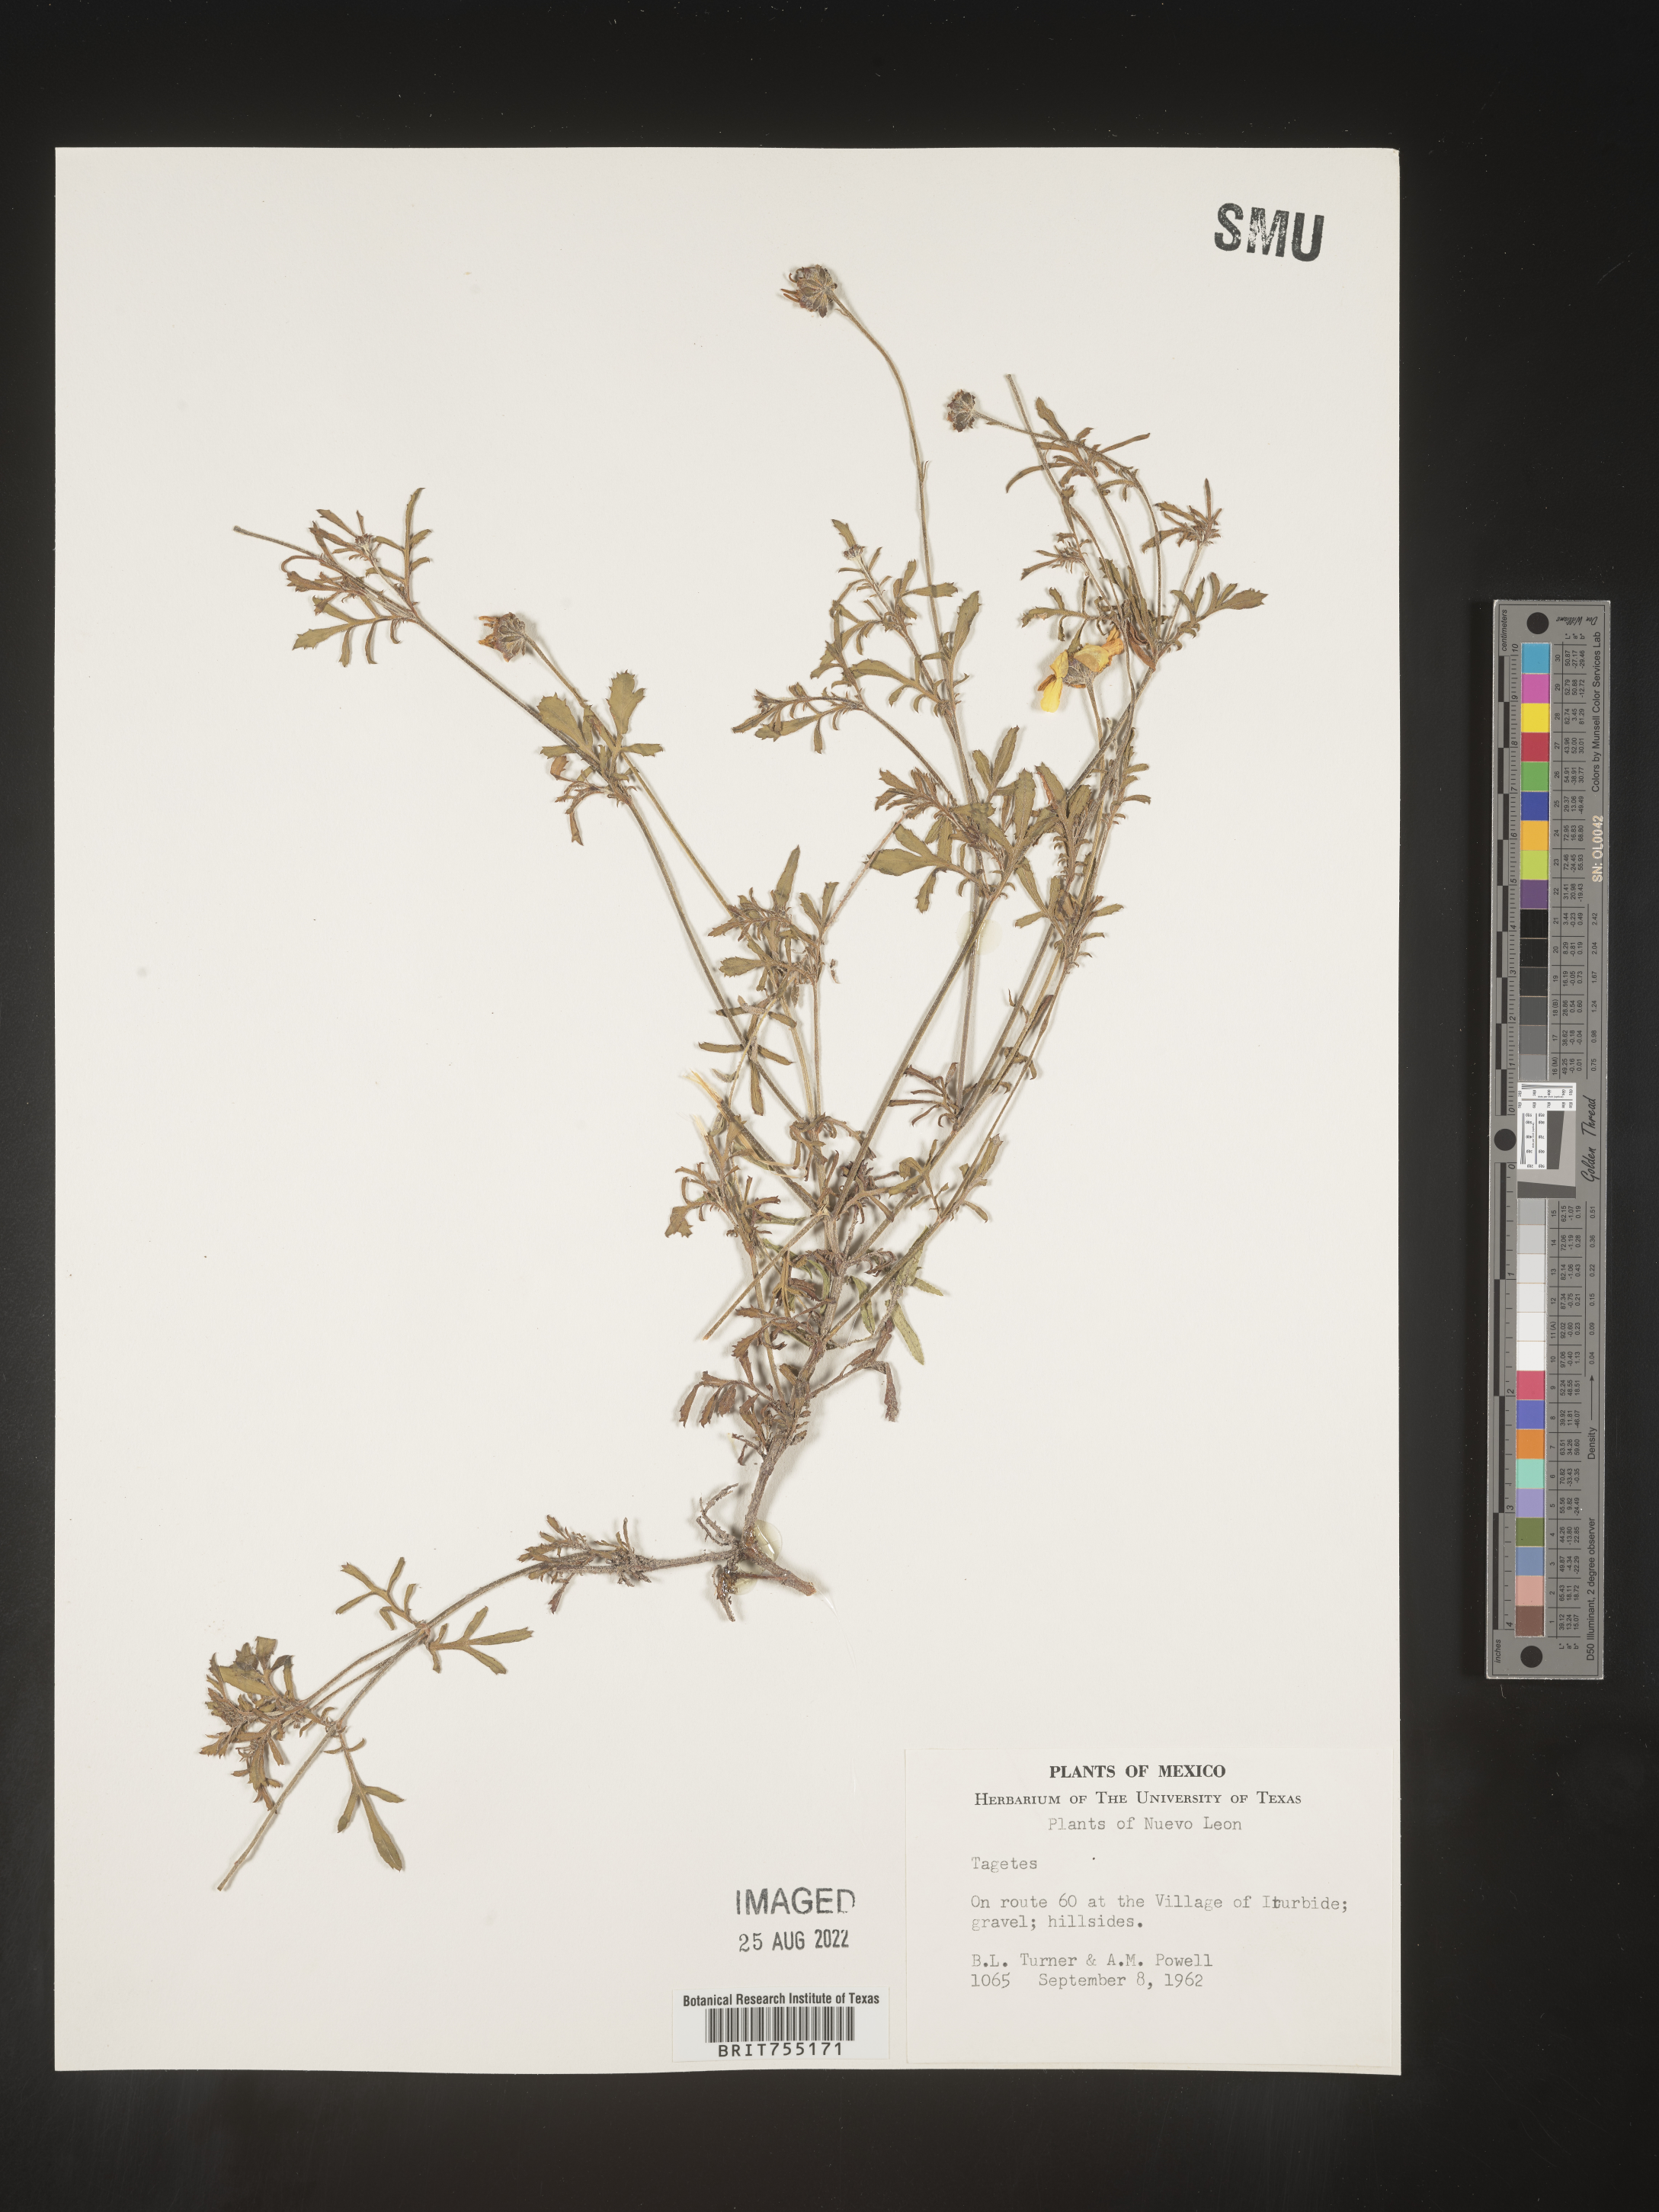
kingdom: Plantae
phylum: Tracheophyta
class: Magnoliopsida
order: Asterales
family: Asteraceae
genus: Tagetes
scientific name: Tagetes
